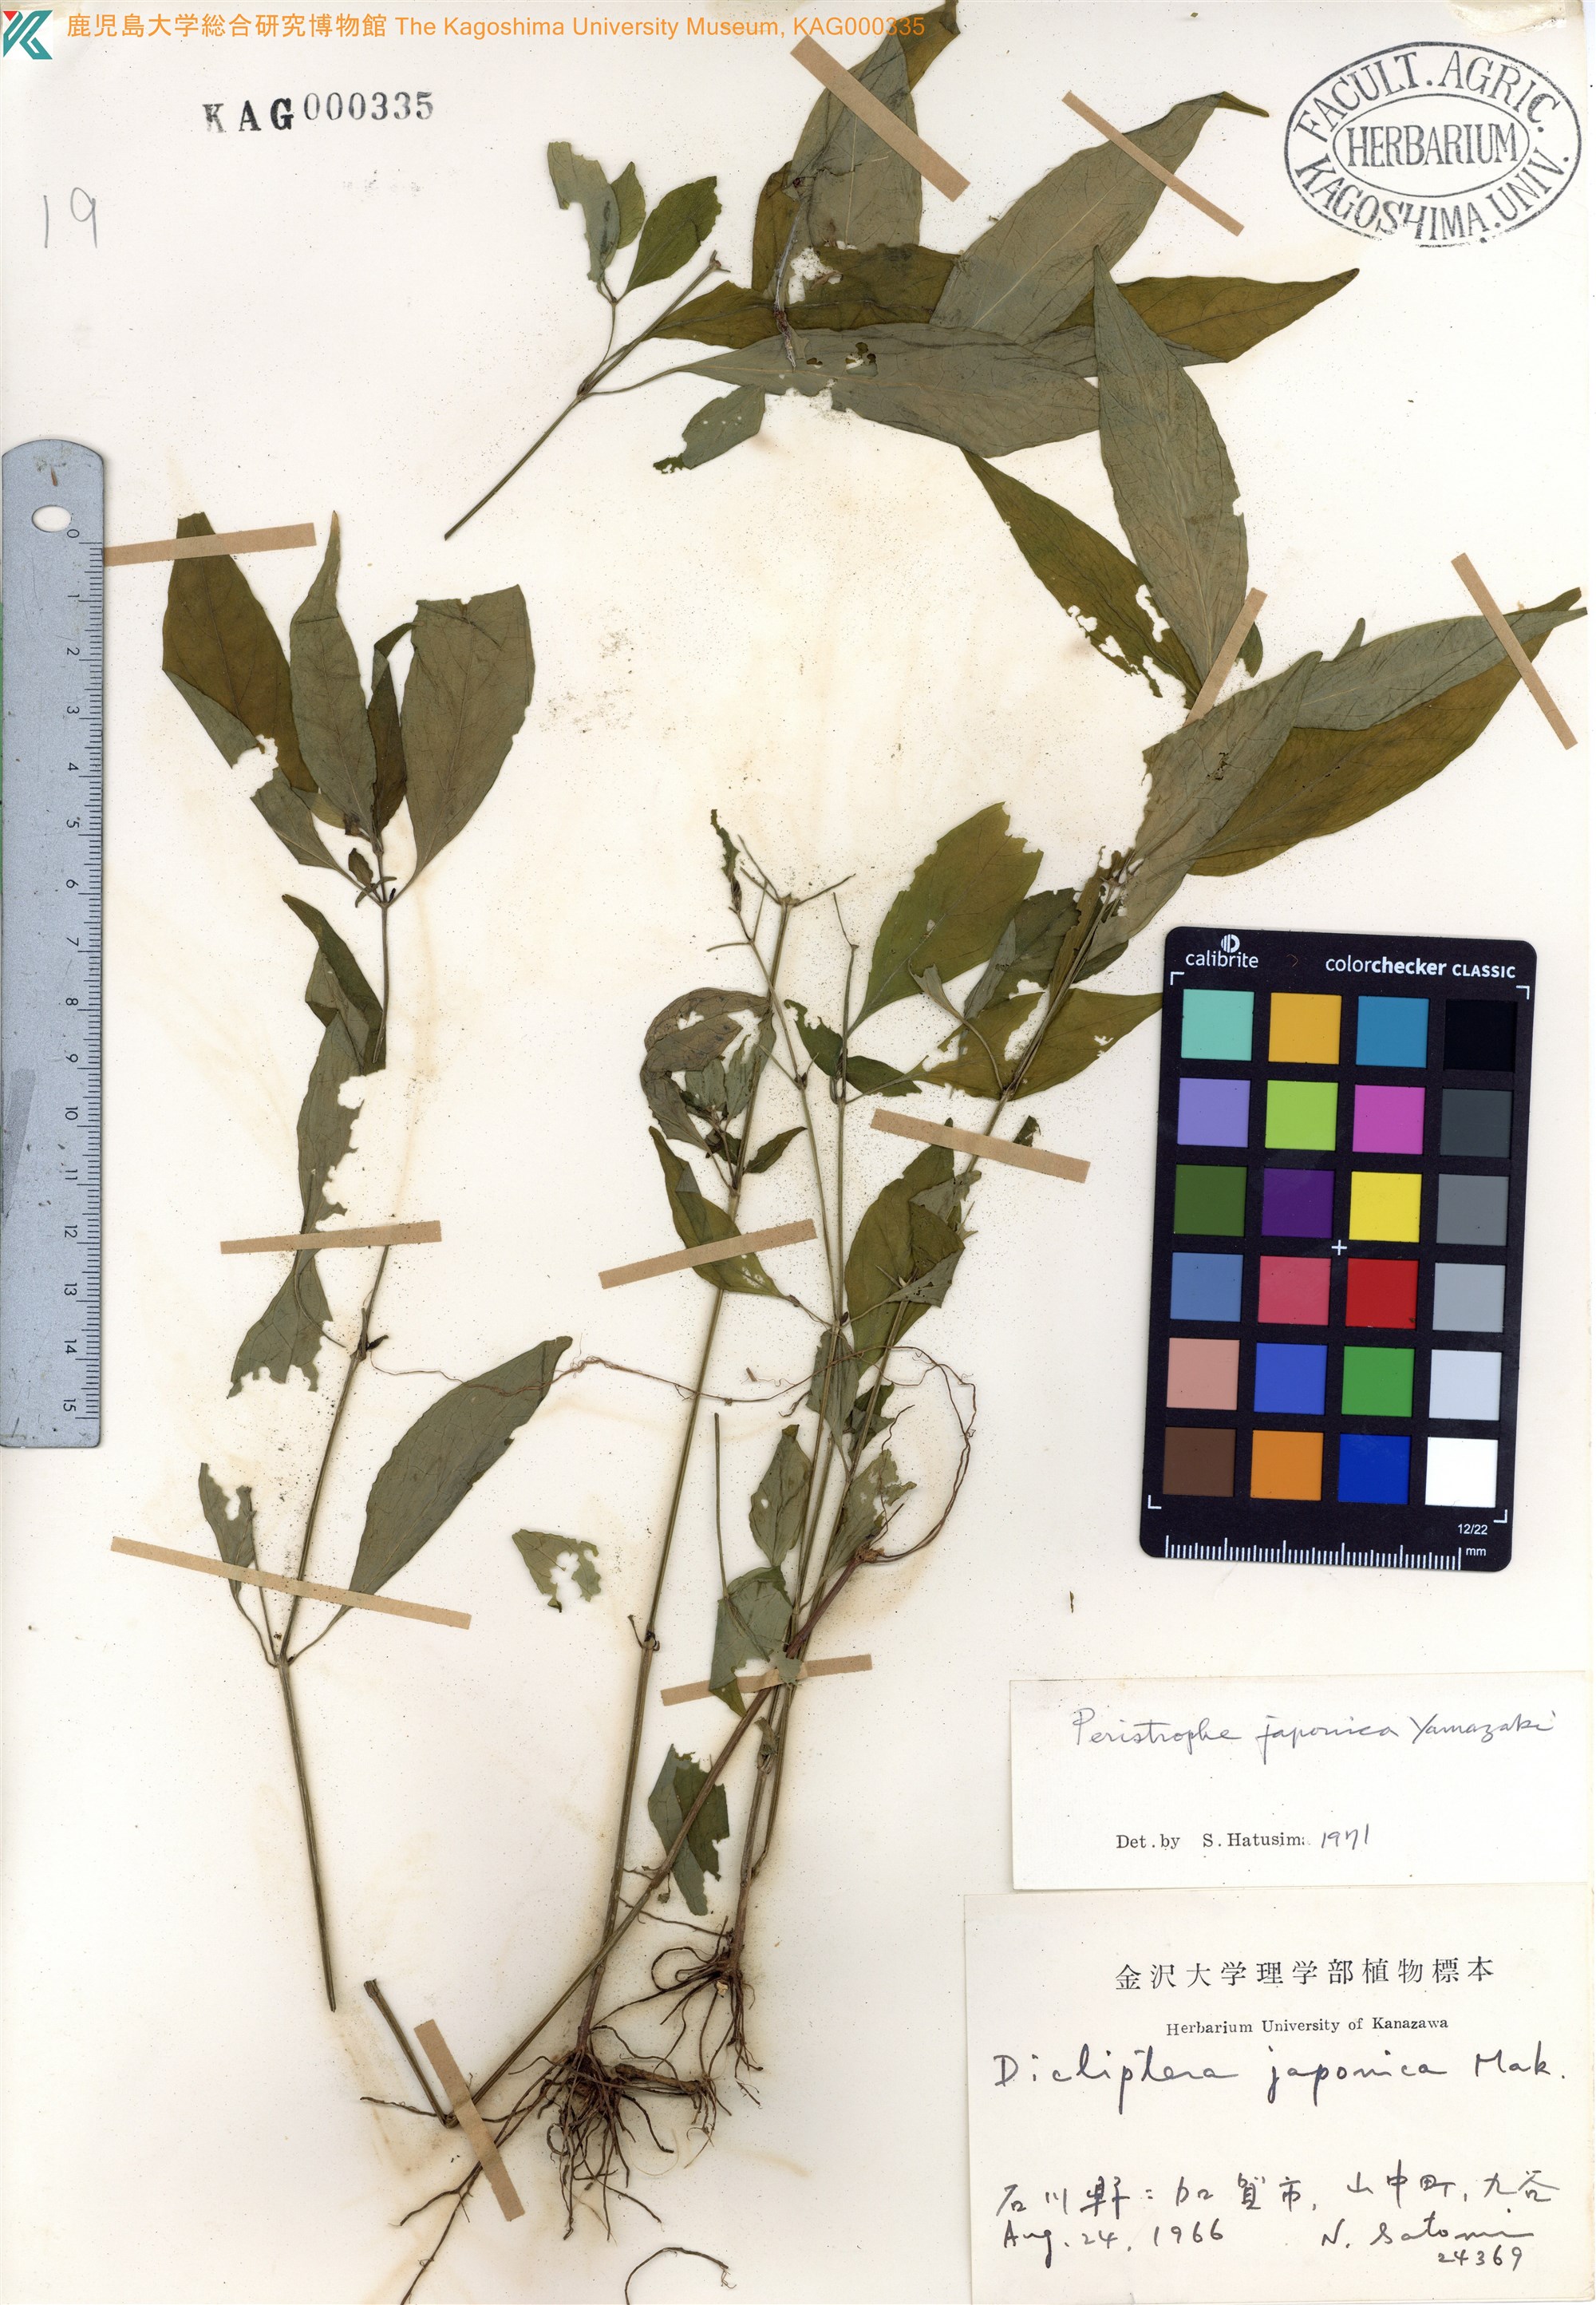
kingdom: Plantae
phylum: Tracheophyta
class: Magnoliopsida
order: Lamiales
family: Acanthaceae
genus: Dicliptera
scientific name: Dicliptera japonica
